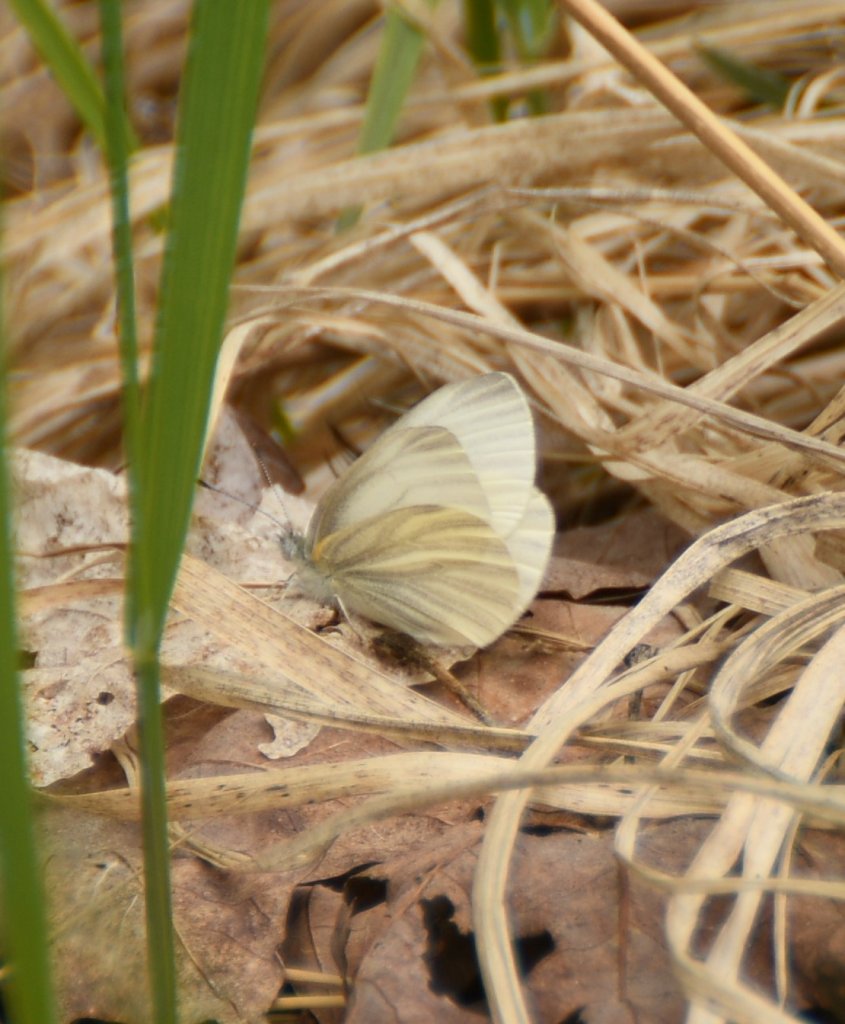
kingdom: Animalia
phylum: Arthropoda
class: Insecta
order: Lepidoptera
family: Pieridae
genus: Pieris
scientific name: Pieris virginiensis
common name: West Virginia White
